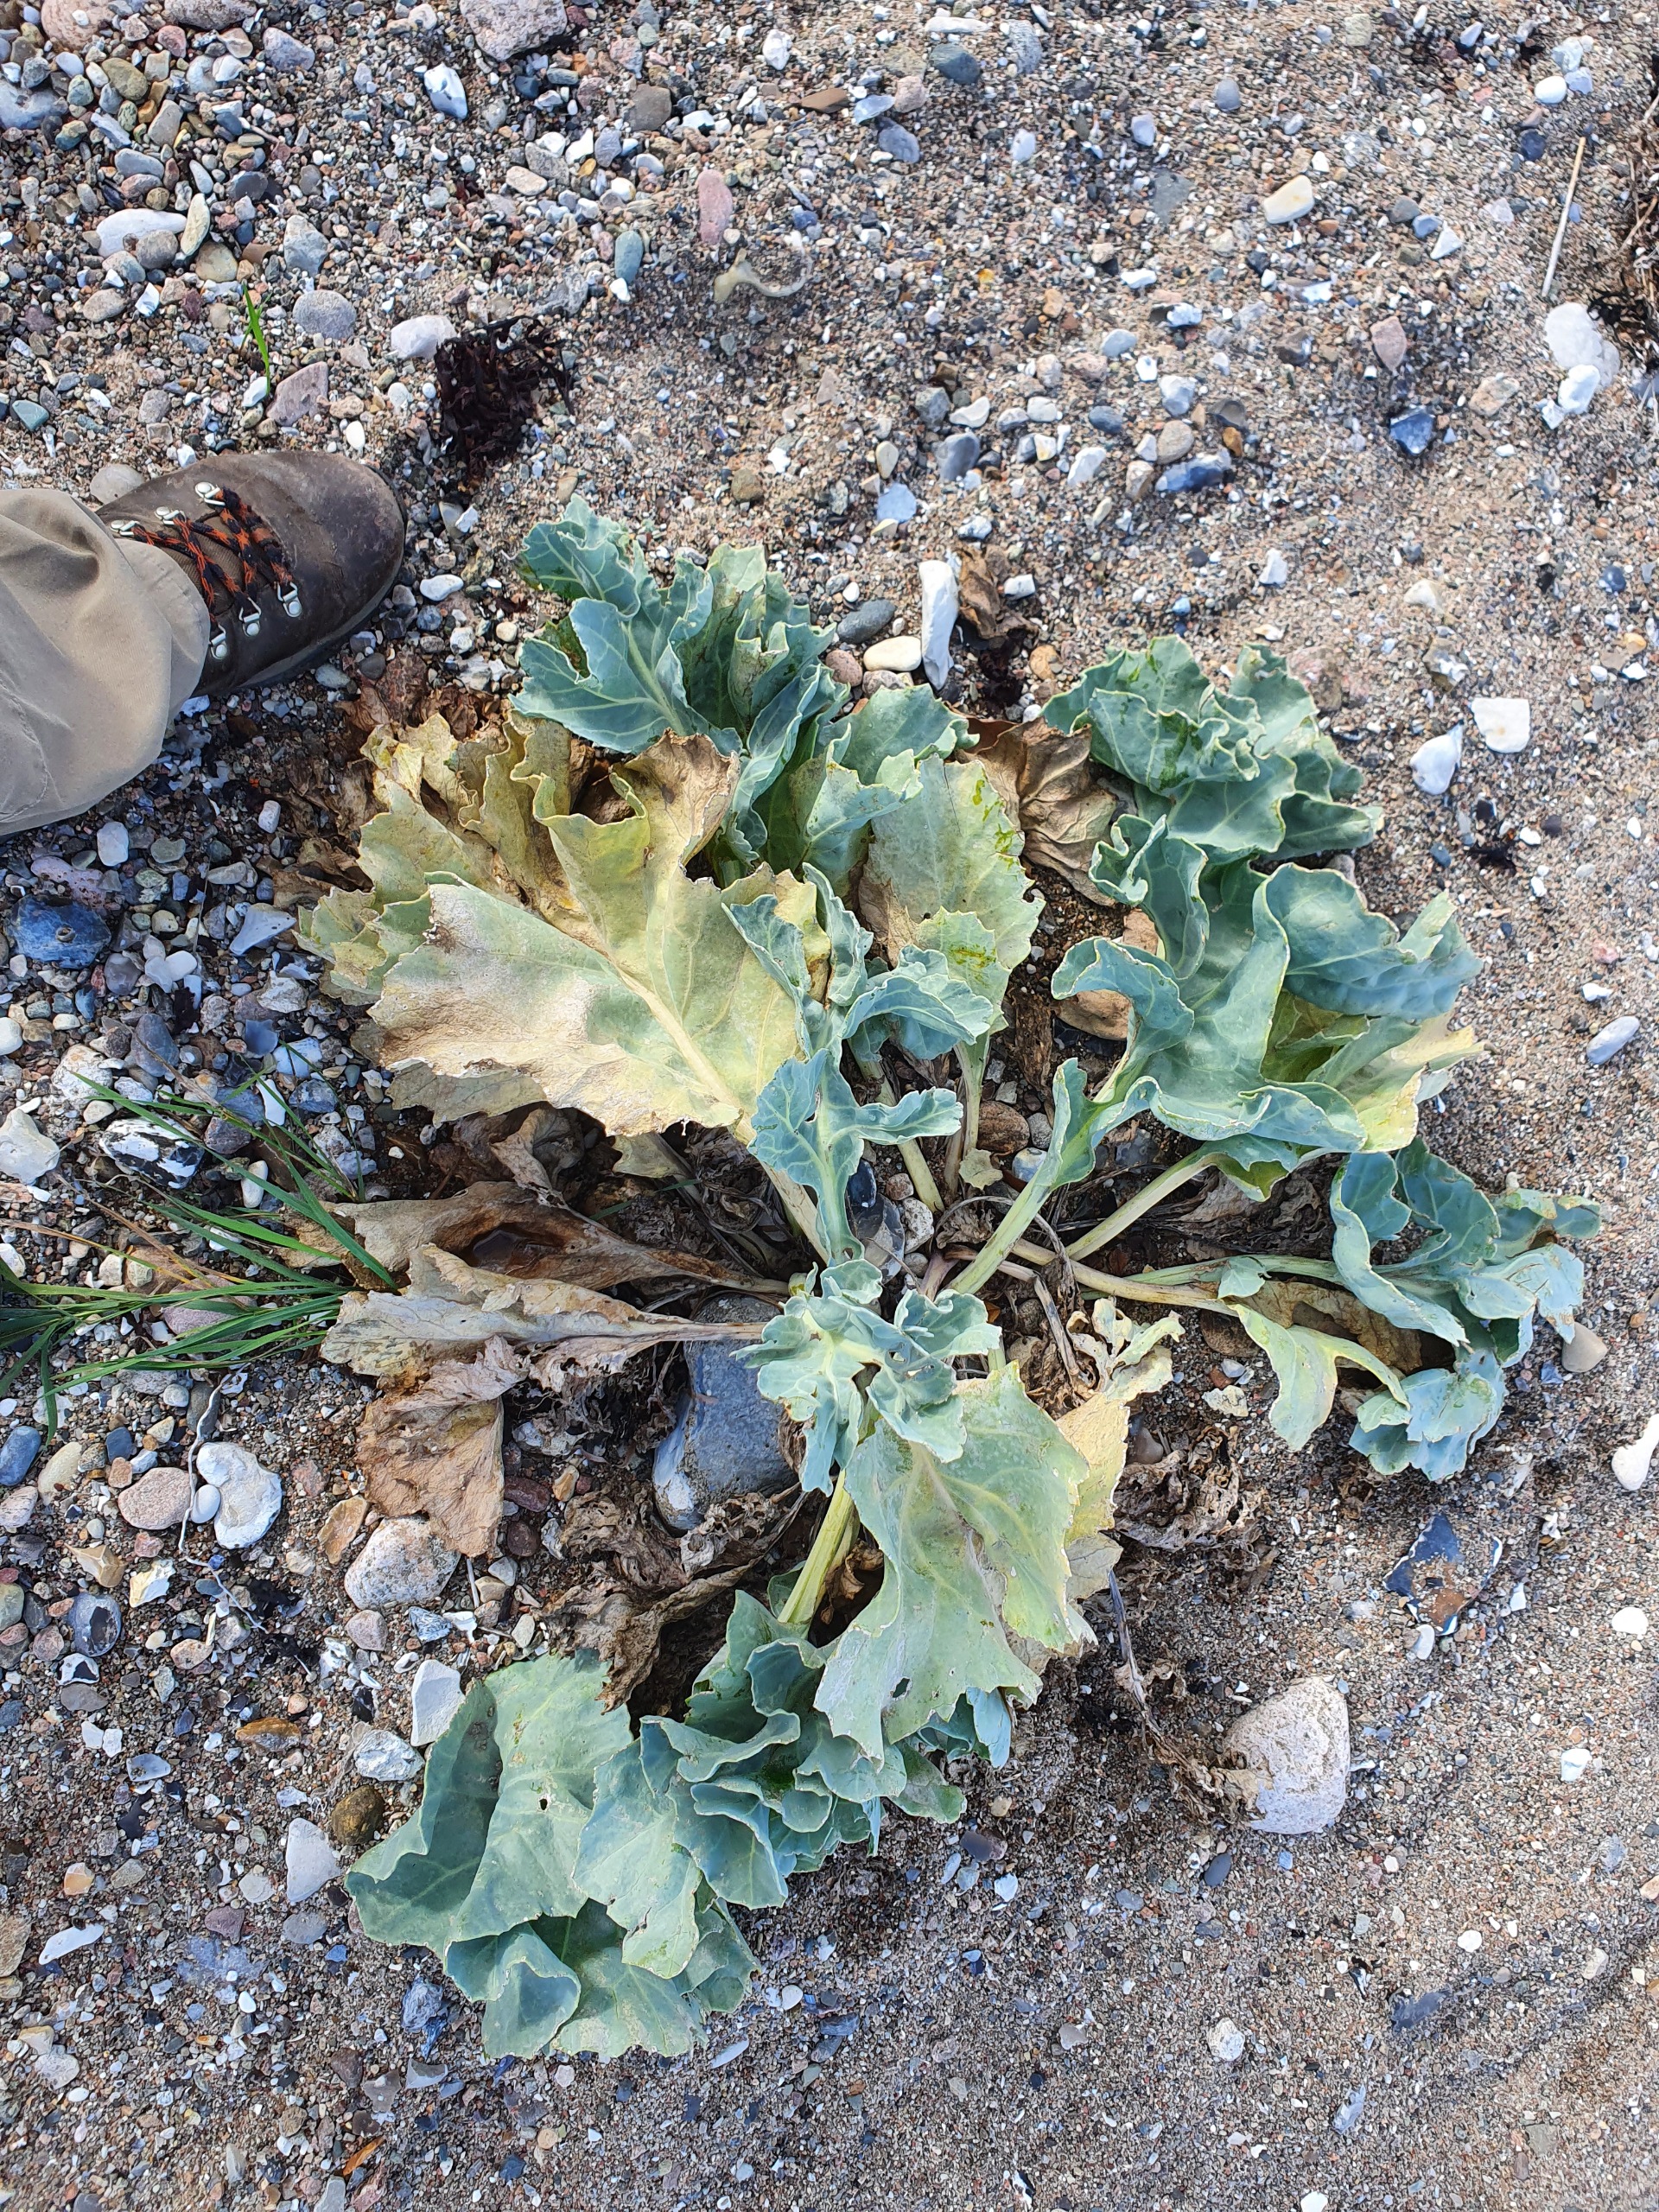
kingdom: Plantae
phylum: Tracheophyta
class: Magnoliopsida
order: Brassicales
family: Brassicaceae
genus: Crambe
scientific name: Crambe maritima
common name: Strandkål
